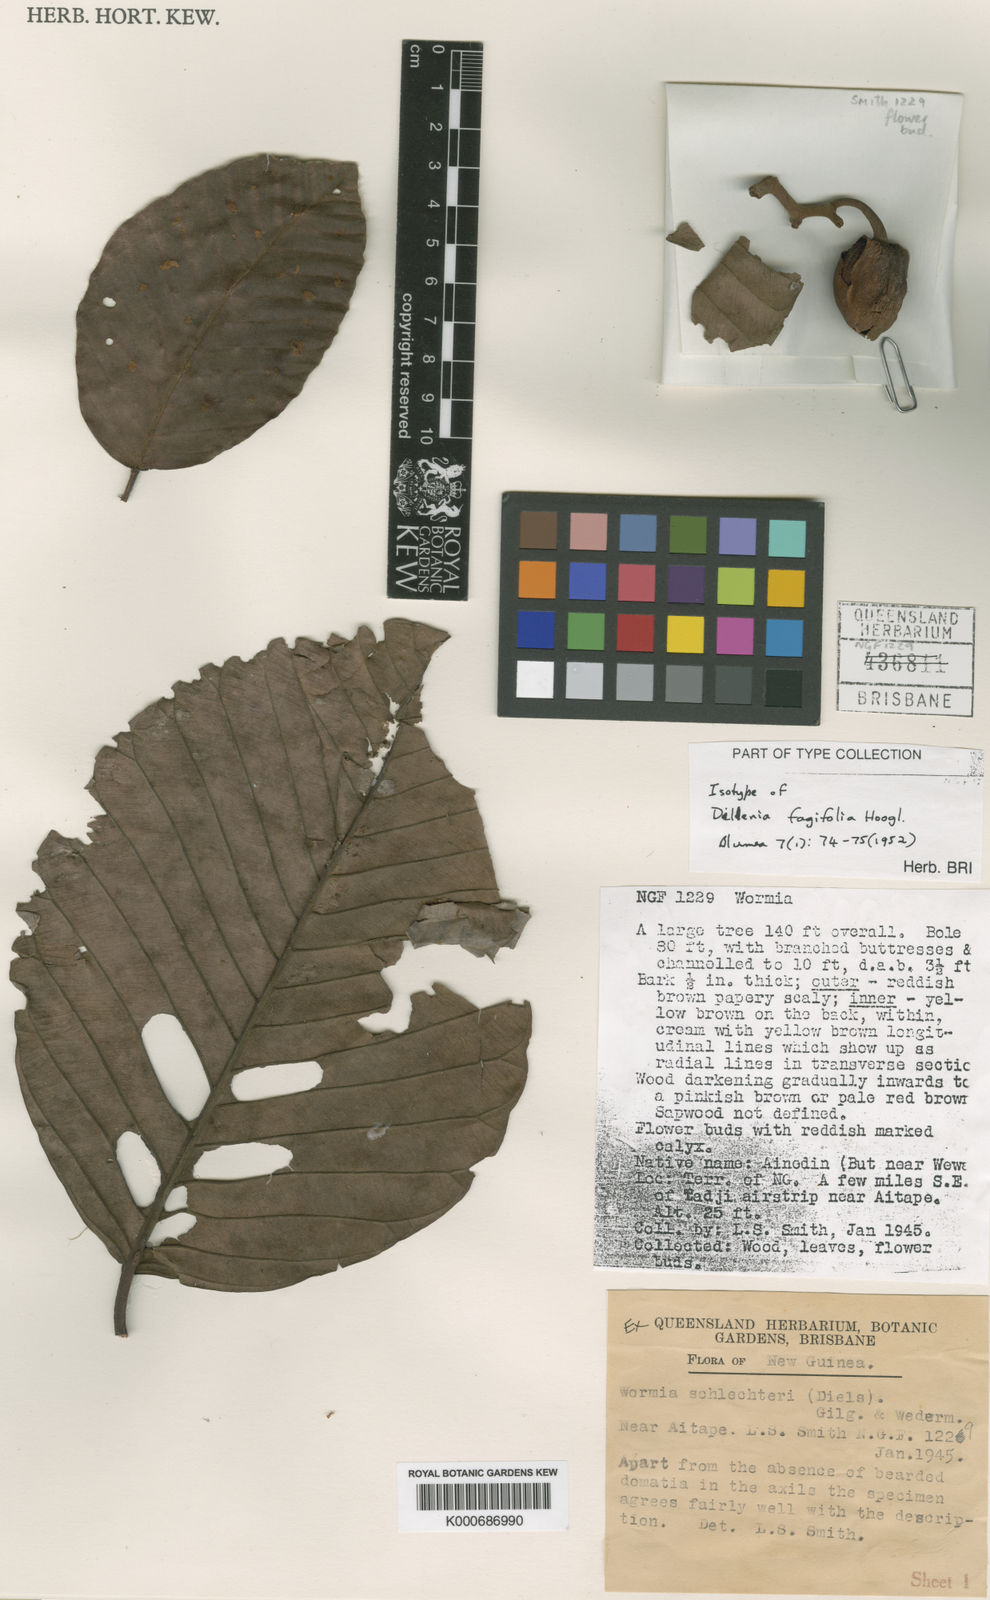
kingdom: Plantae
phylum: Tracheophyta
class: Magnoliopsida
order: Dilleniales
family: Dilleniaceae
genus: Dillenia
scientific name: Dillenia fagifolia
